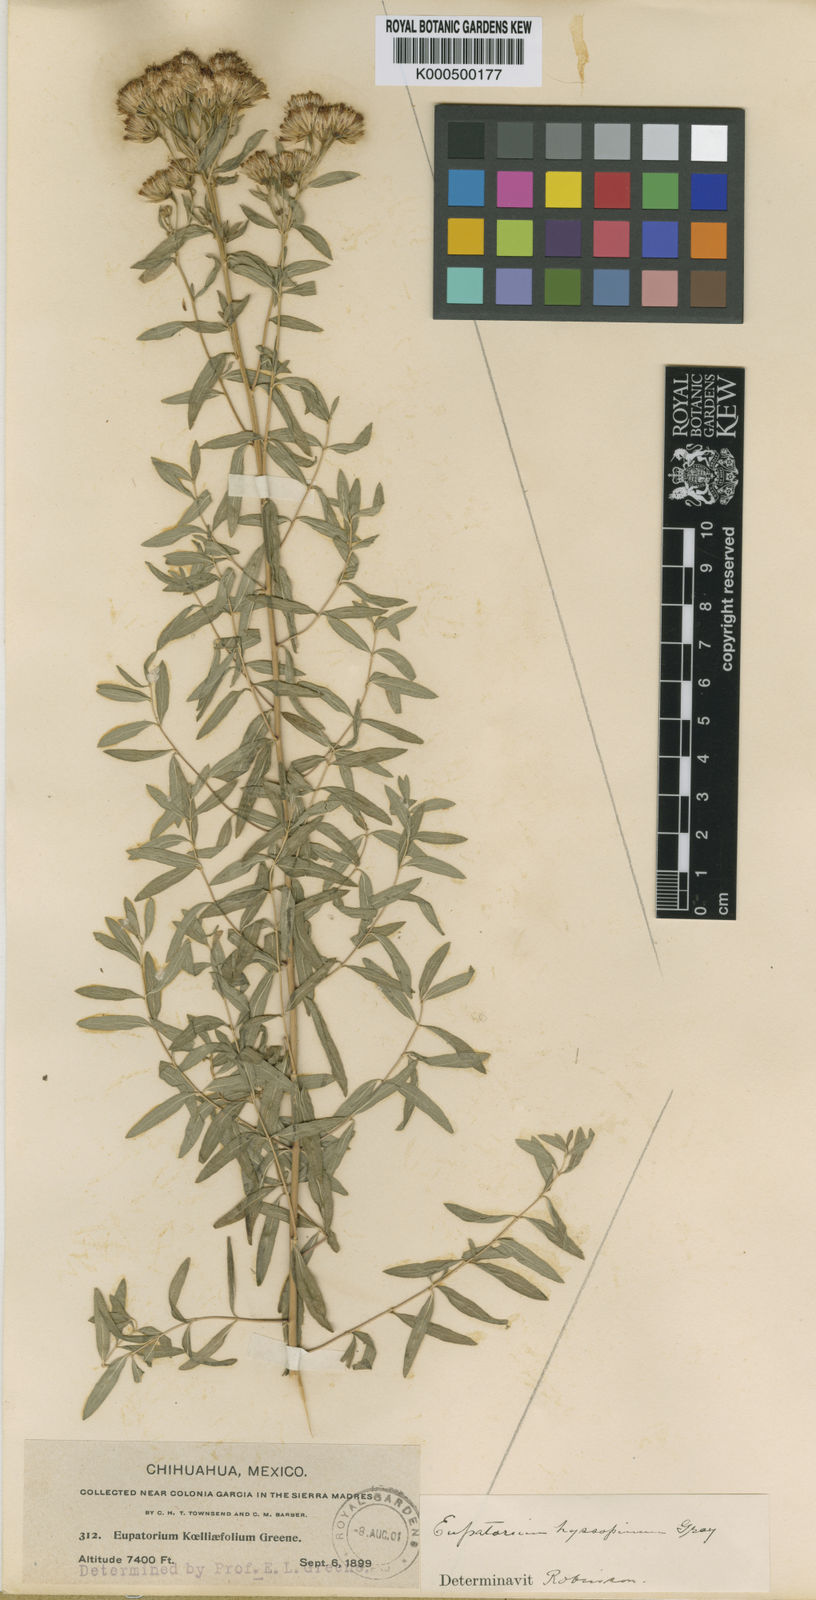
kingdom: Plantae
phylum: Tracheophyta
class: Magnoliopsida
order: Asterales
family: Asteraceae
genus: Ageratina
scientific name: Ageratina hyssopina
